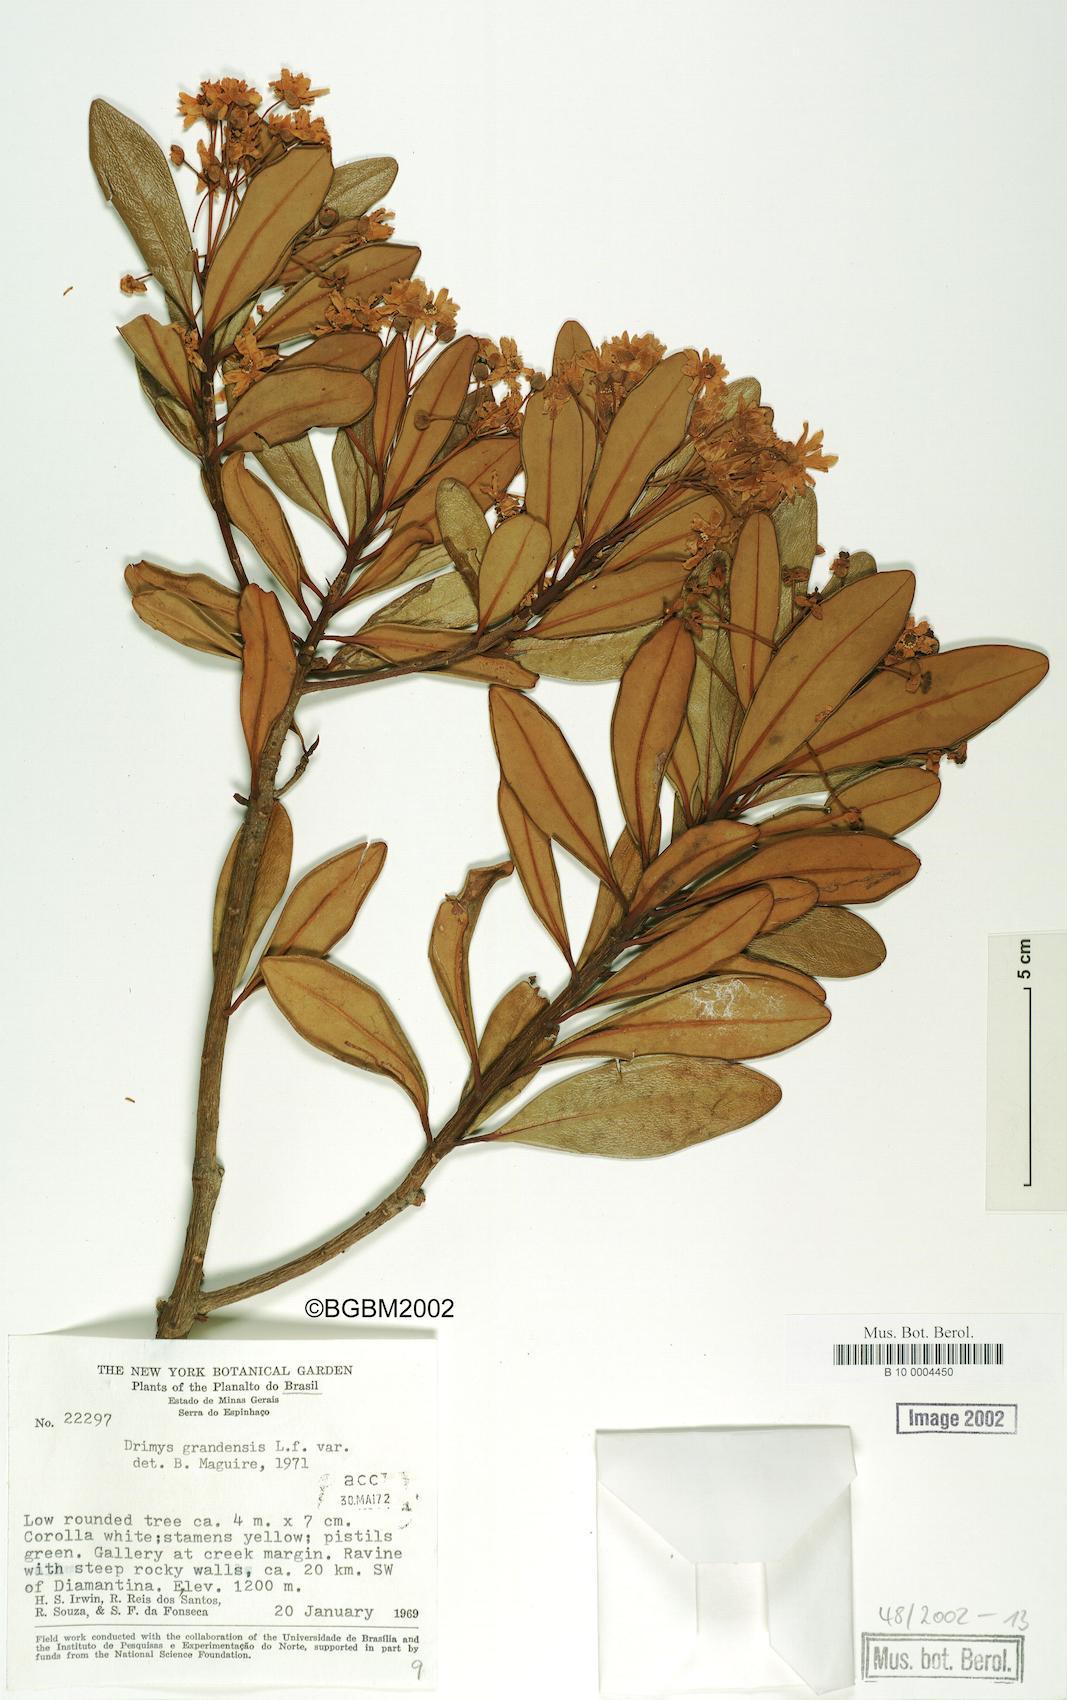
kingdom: Plantae
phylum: Tracheophyta
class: Magnoliopsida
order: Canellales
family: Winteraceae
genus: Drimys
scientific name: Drimys brasiliensis
